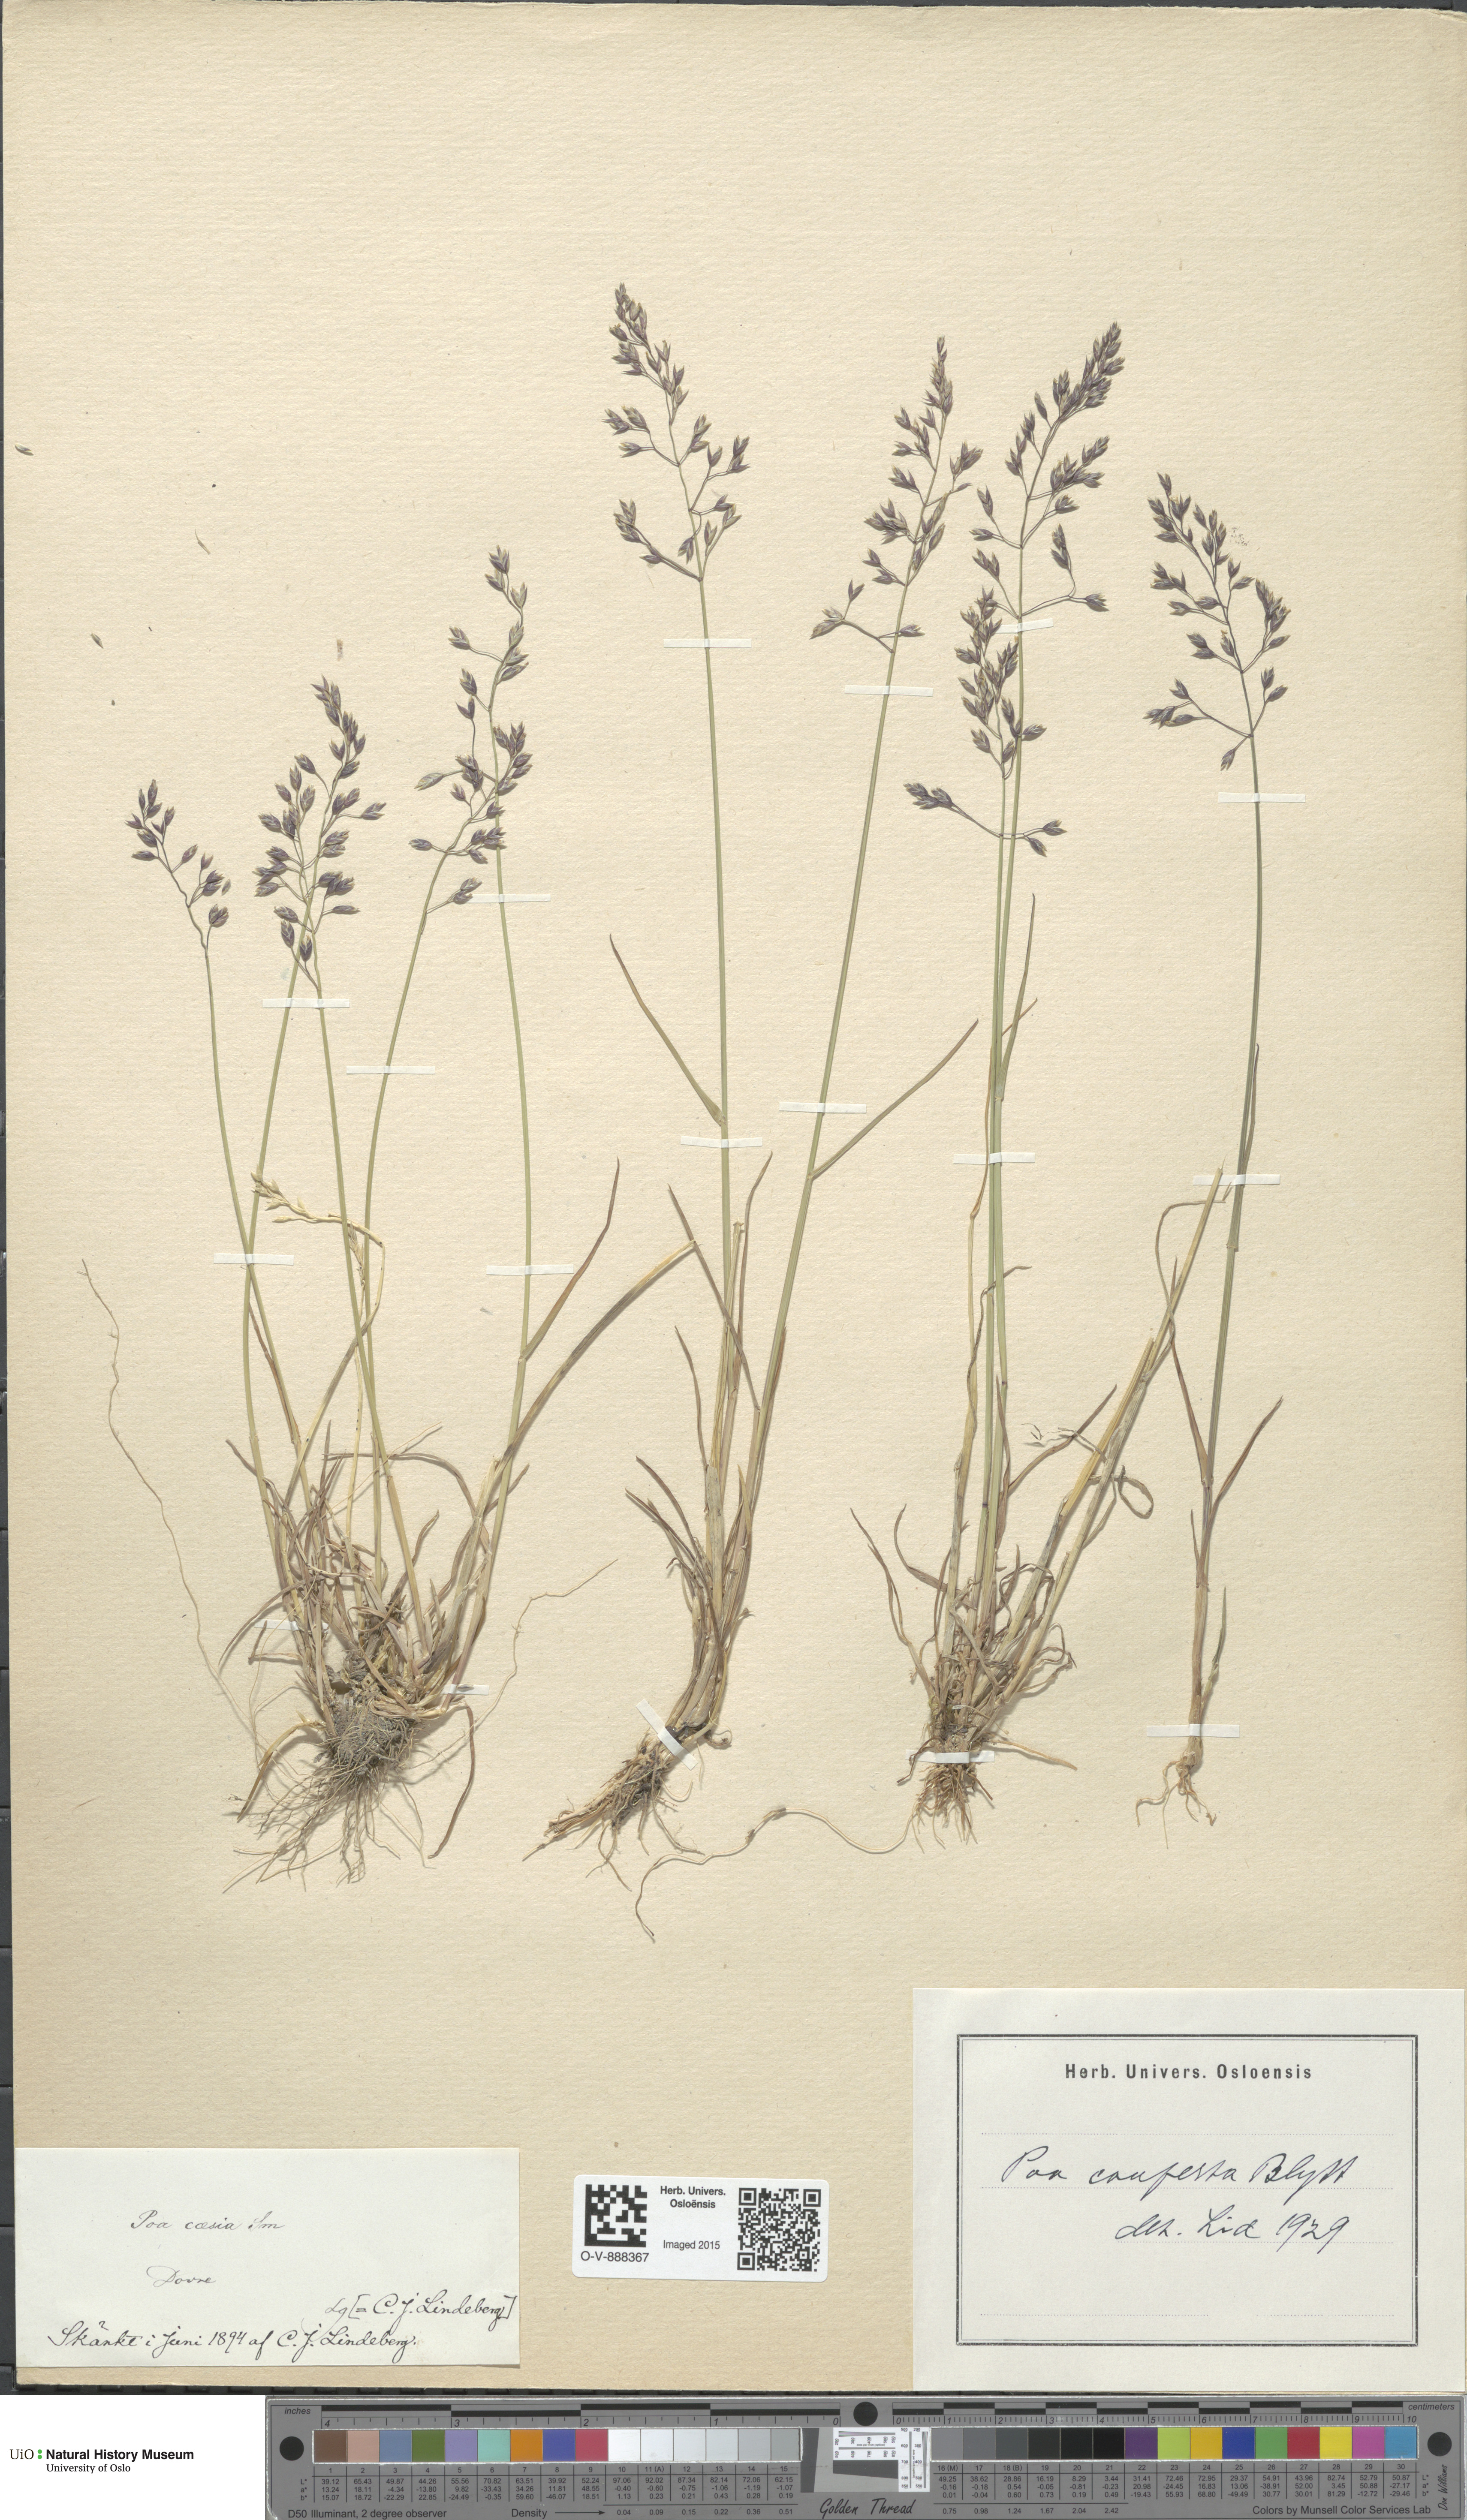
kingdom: Plantae
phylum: Tracheophyta
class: Liliopsida
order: Poales
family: Poaceae
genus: Poa
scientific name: Poa glauca
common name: Glaucous bluegrass
